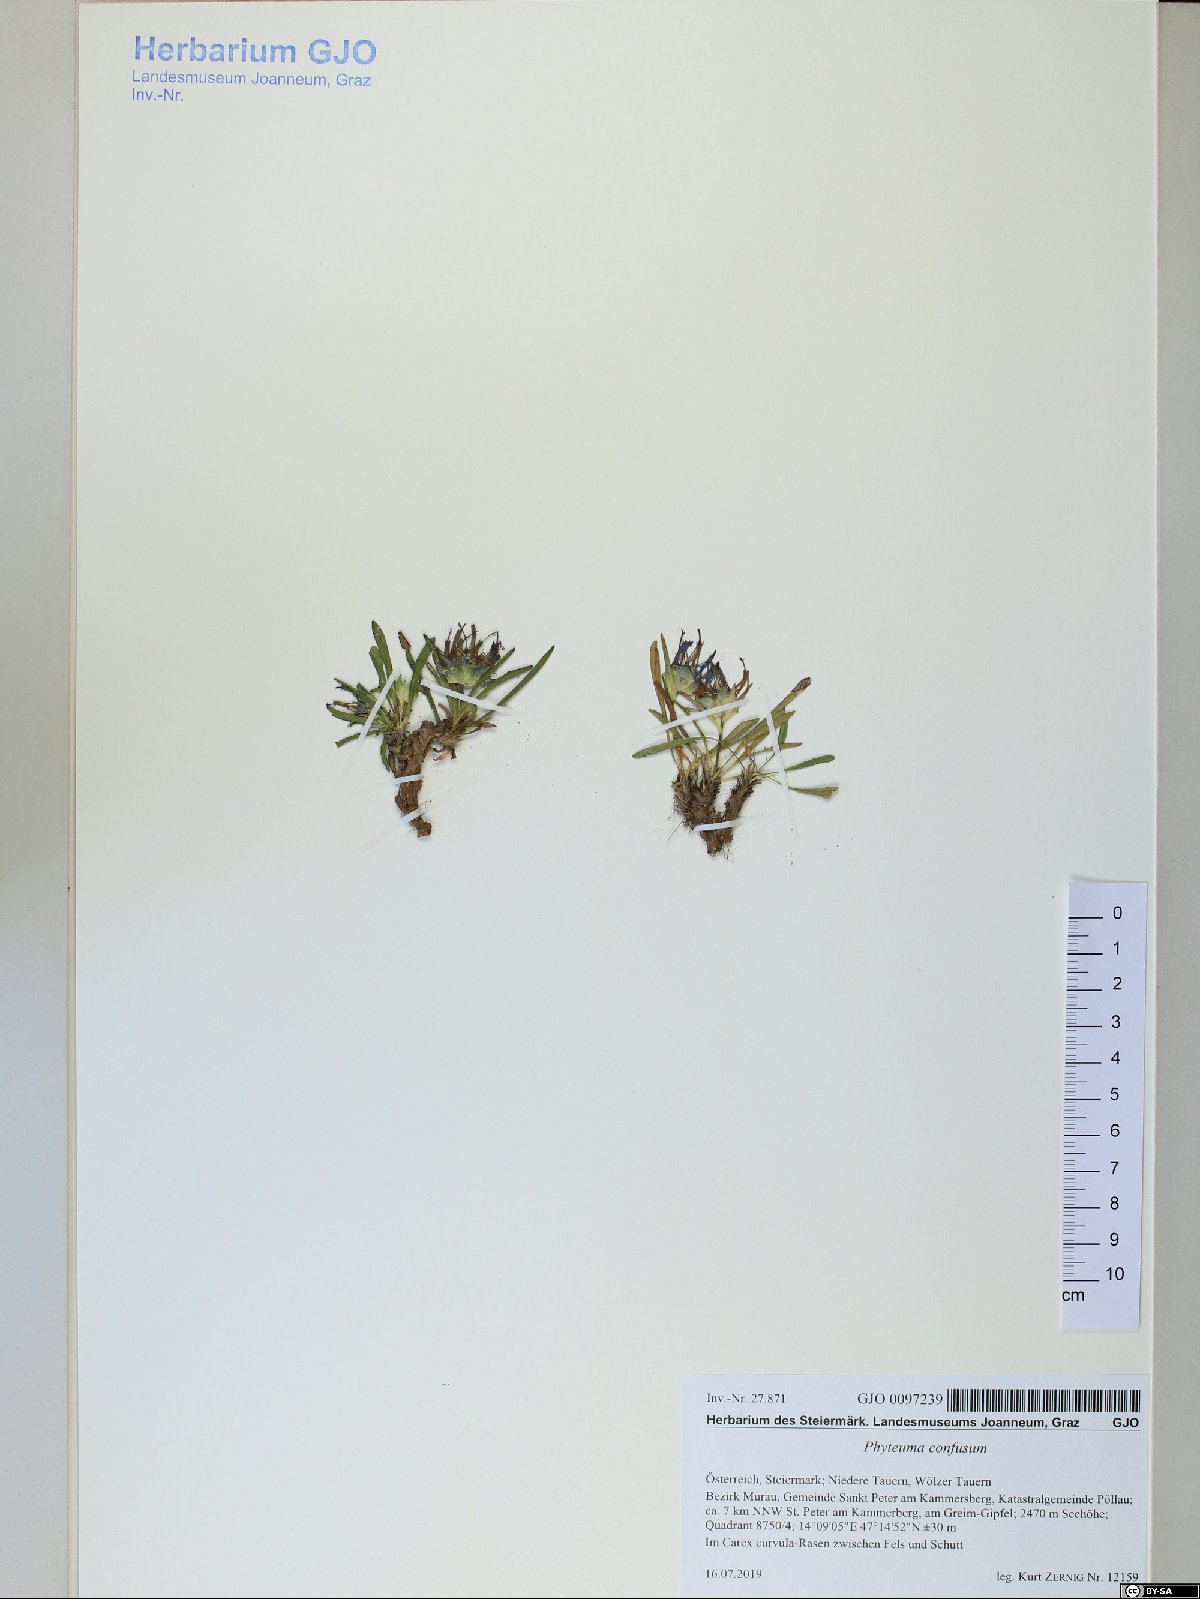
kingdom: Plantae
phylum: Tracheophyta
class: Magnoliopsida
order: Asterales
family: Campanulaceae
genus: Phyteuma
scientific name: Phyteuma confusum
